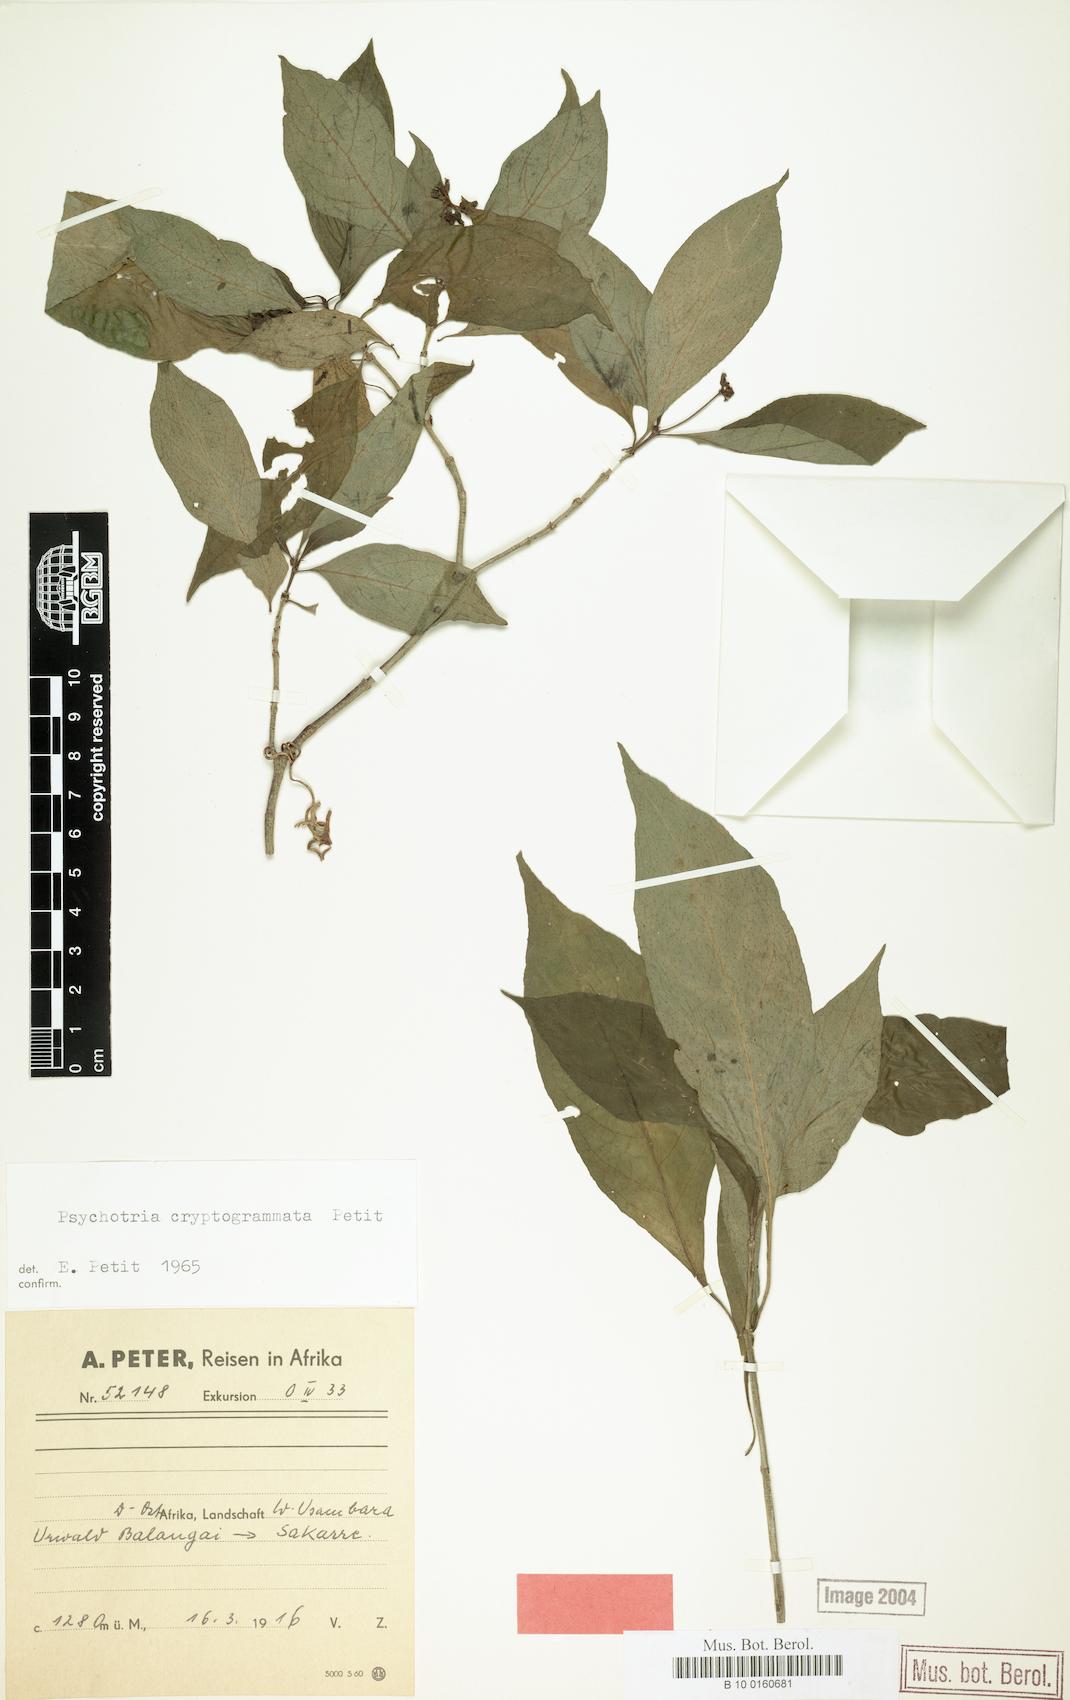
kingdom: Plantae
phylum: Tracheophyta
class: Magnoliopsida
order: Gentianales
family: Rubiaceae
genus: Psychotria
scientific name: Psychotria cryptogrammata
